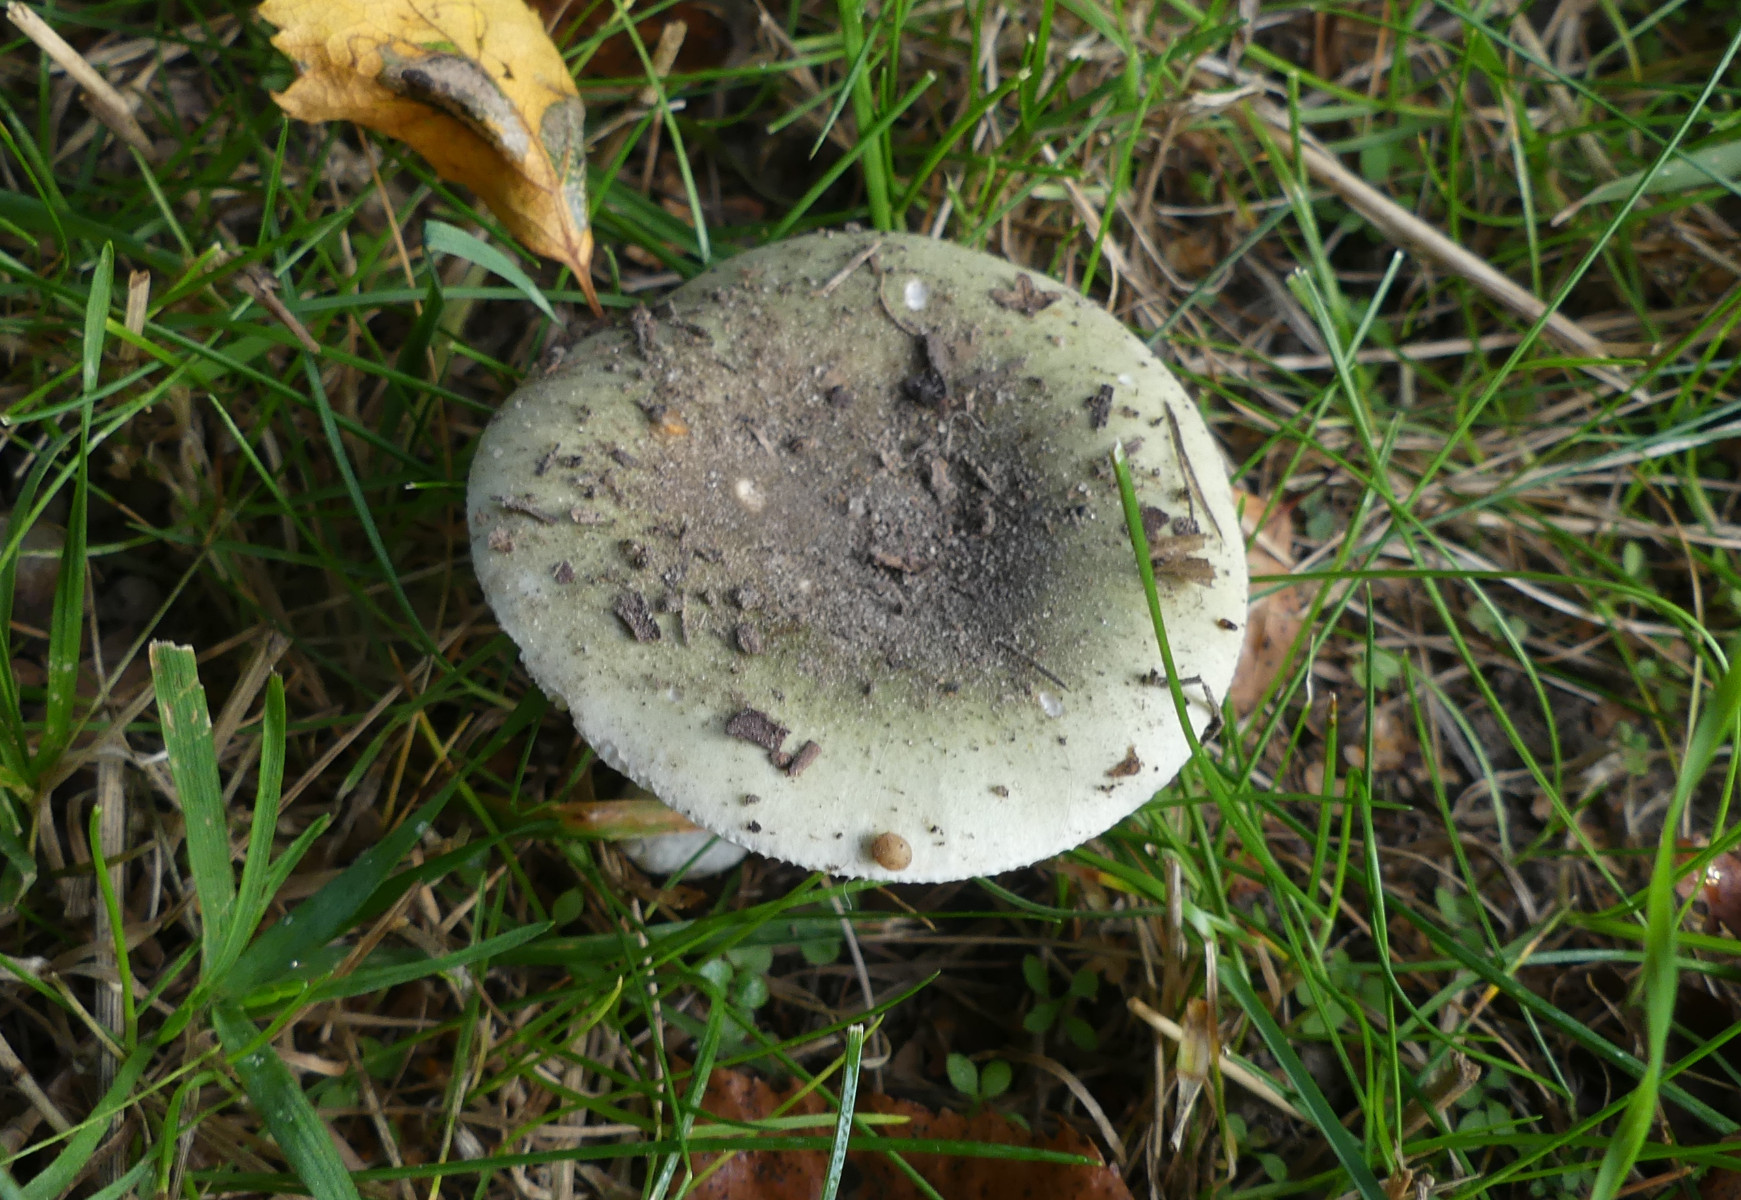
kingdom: Fungi
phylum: Basidiomycota
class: Agaricomycetes
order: Russulales
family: Russulaceae
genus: Russula
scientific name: Russula aeruginea
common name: græsgrøn skørhat
